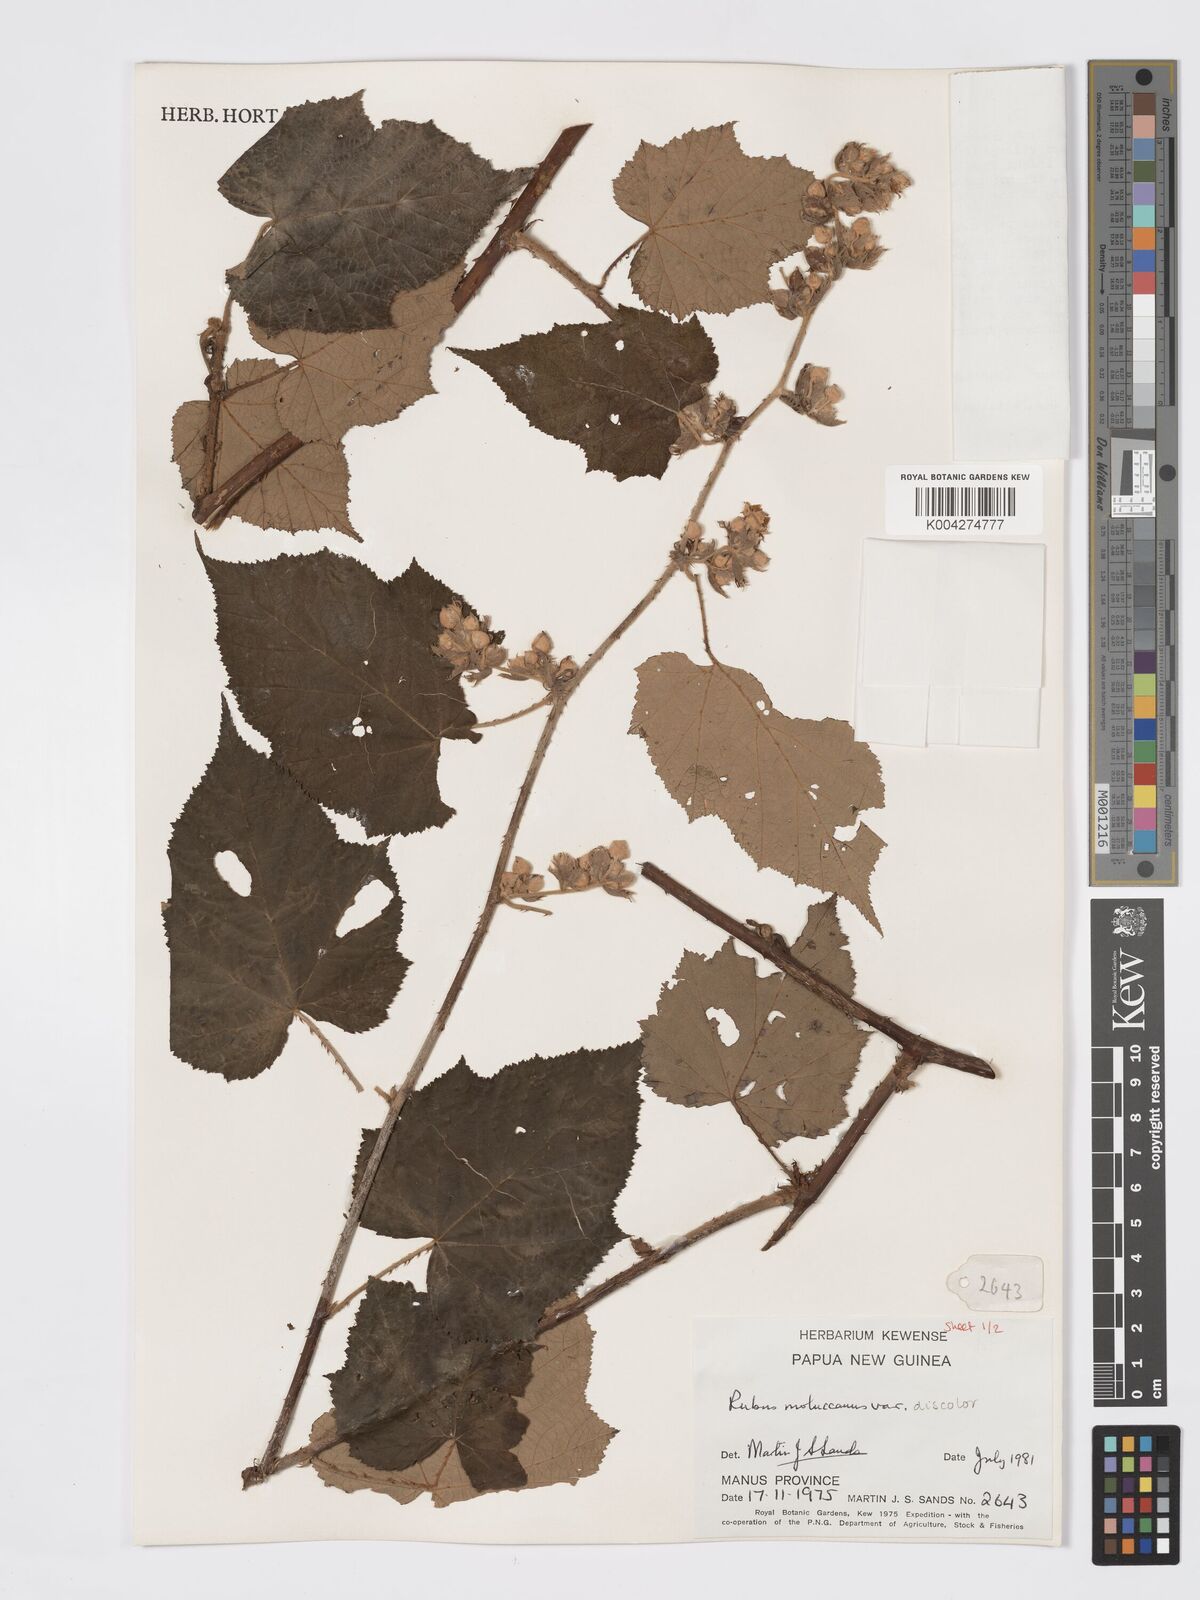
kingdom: Plantae
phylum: Tracheophyta
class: Magnoliopsida
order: Rosales
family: Rosaceae
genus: Rubus
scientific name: Rubus moluccanus
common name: Wild raspberry
